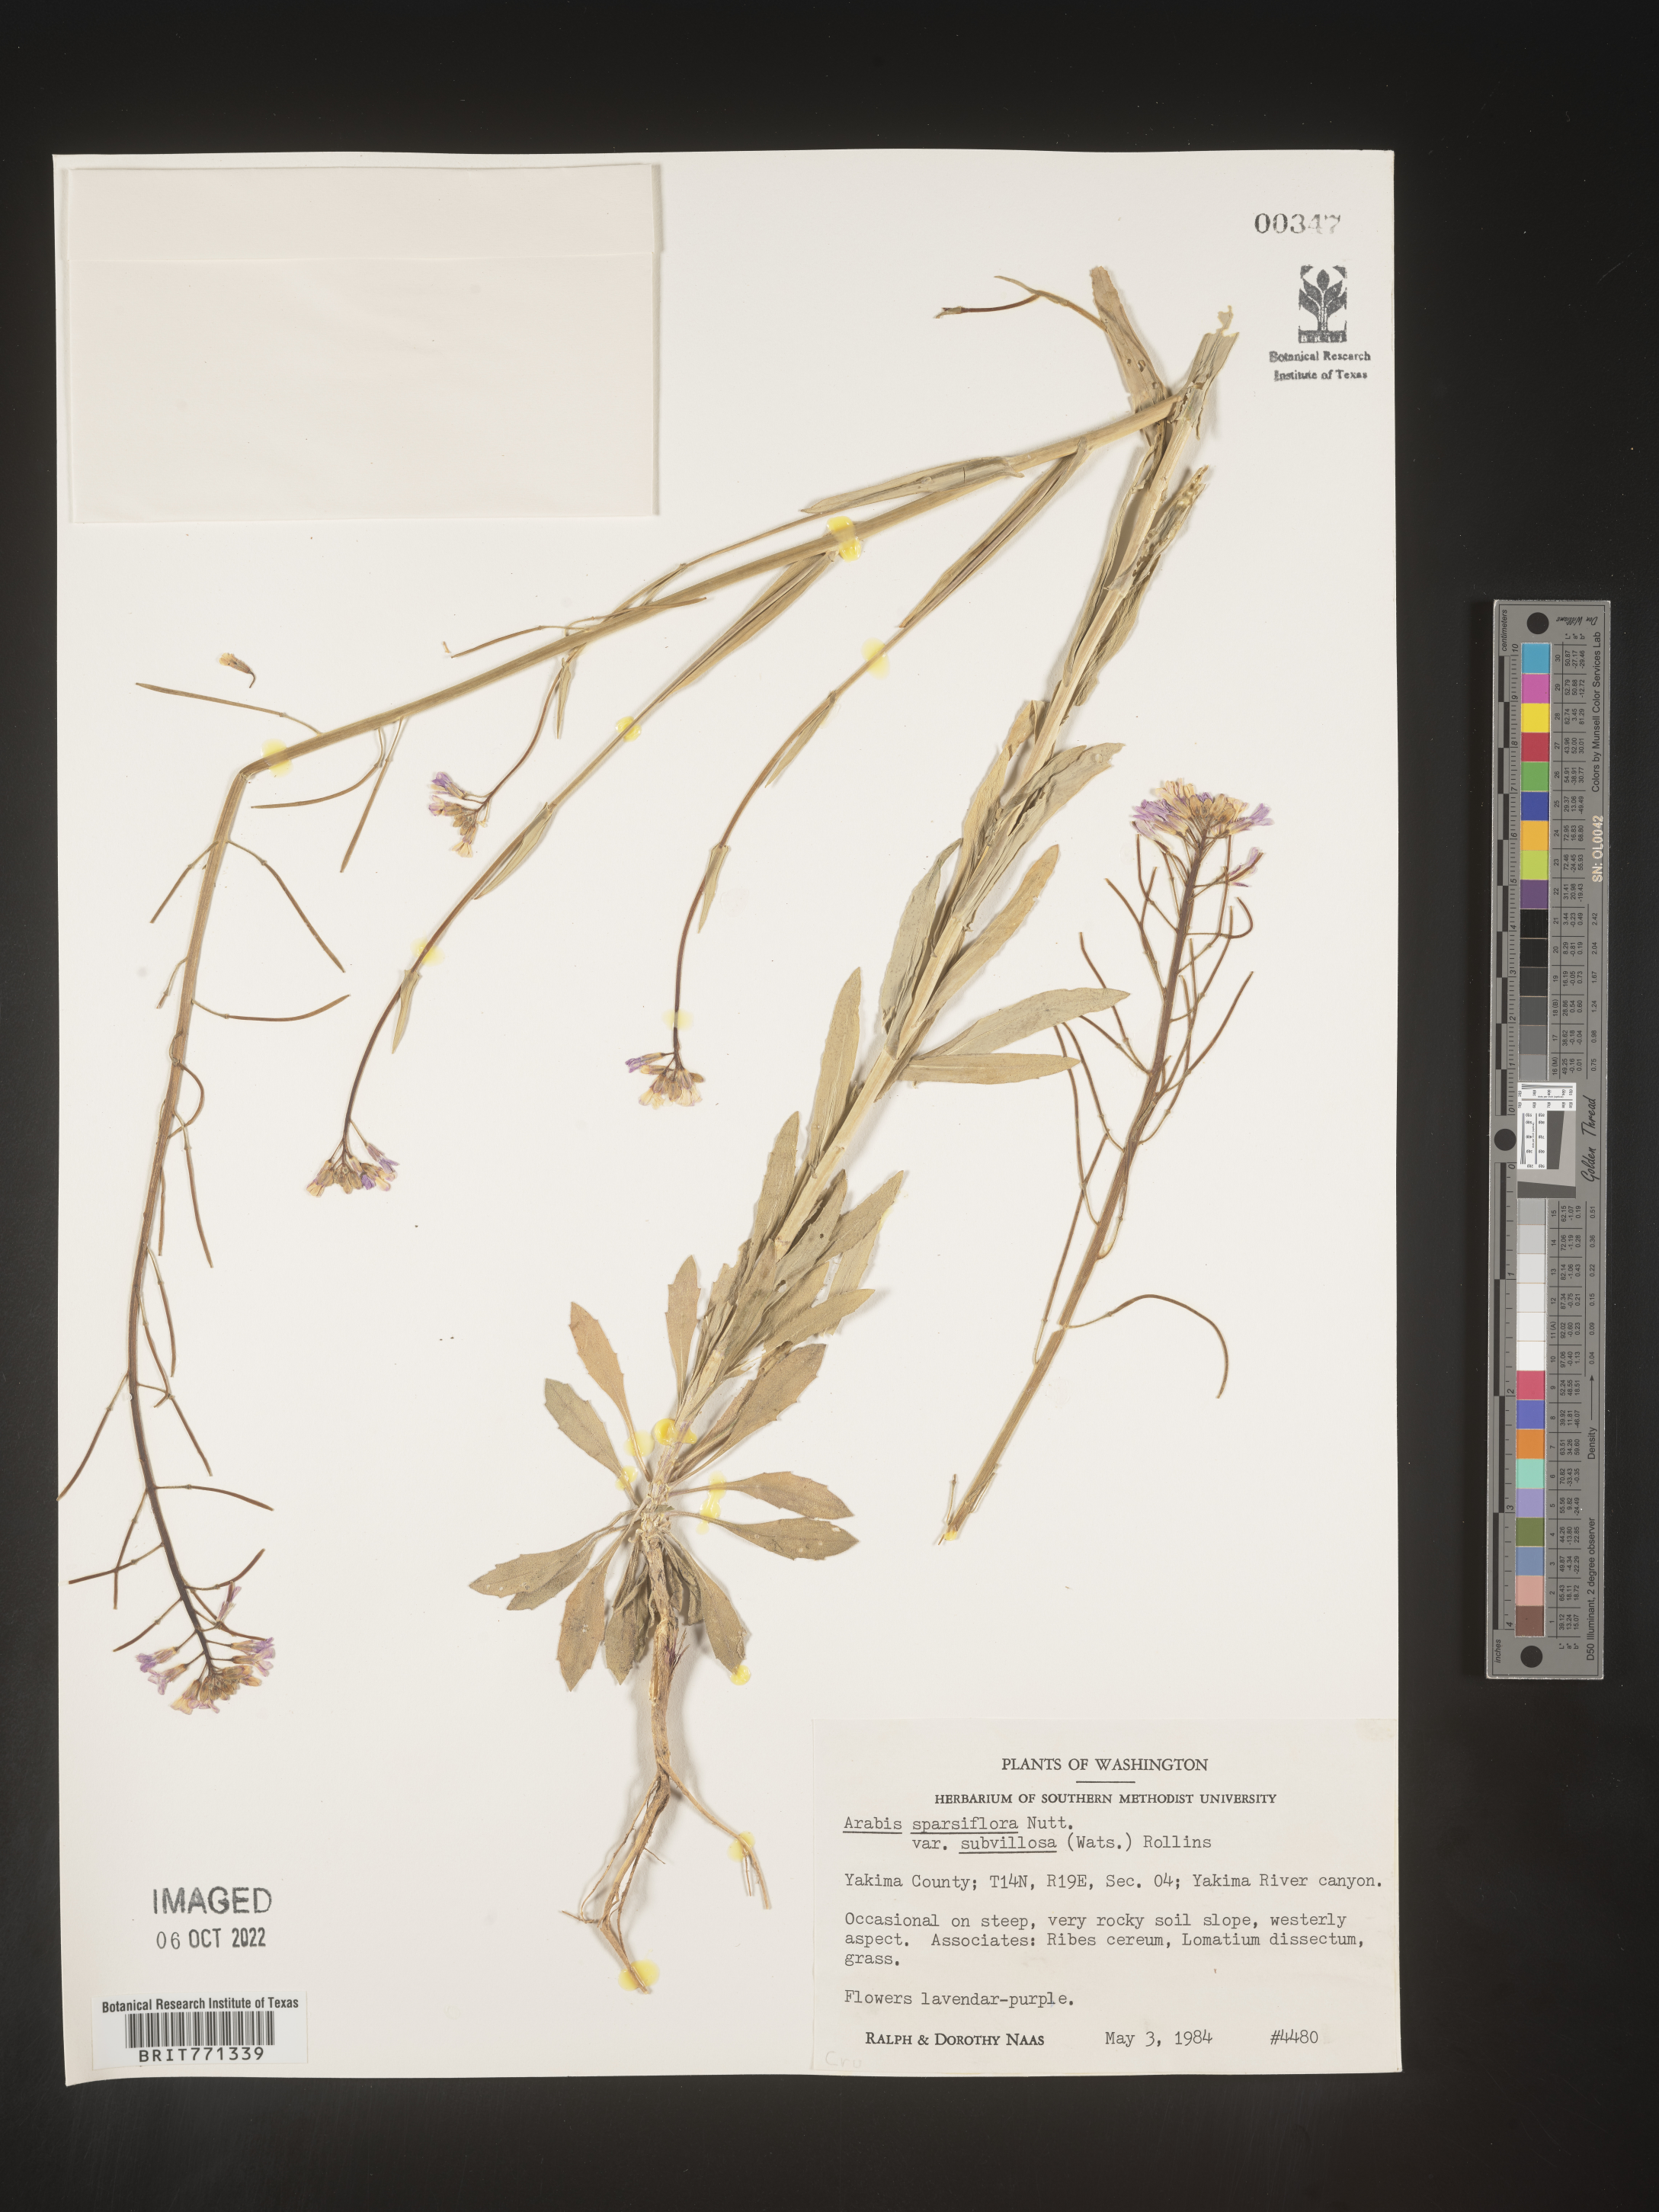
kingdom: Plantae
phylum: Tracheophyta
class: Magnoliopsida
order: Brassicales
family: Brassicaceae
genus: Arabis
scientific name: Arabis
